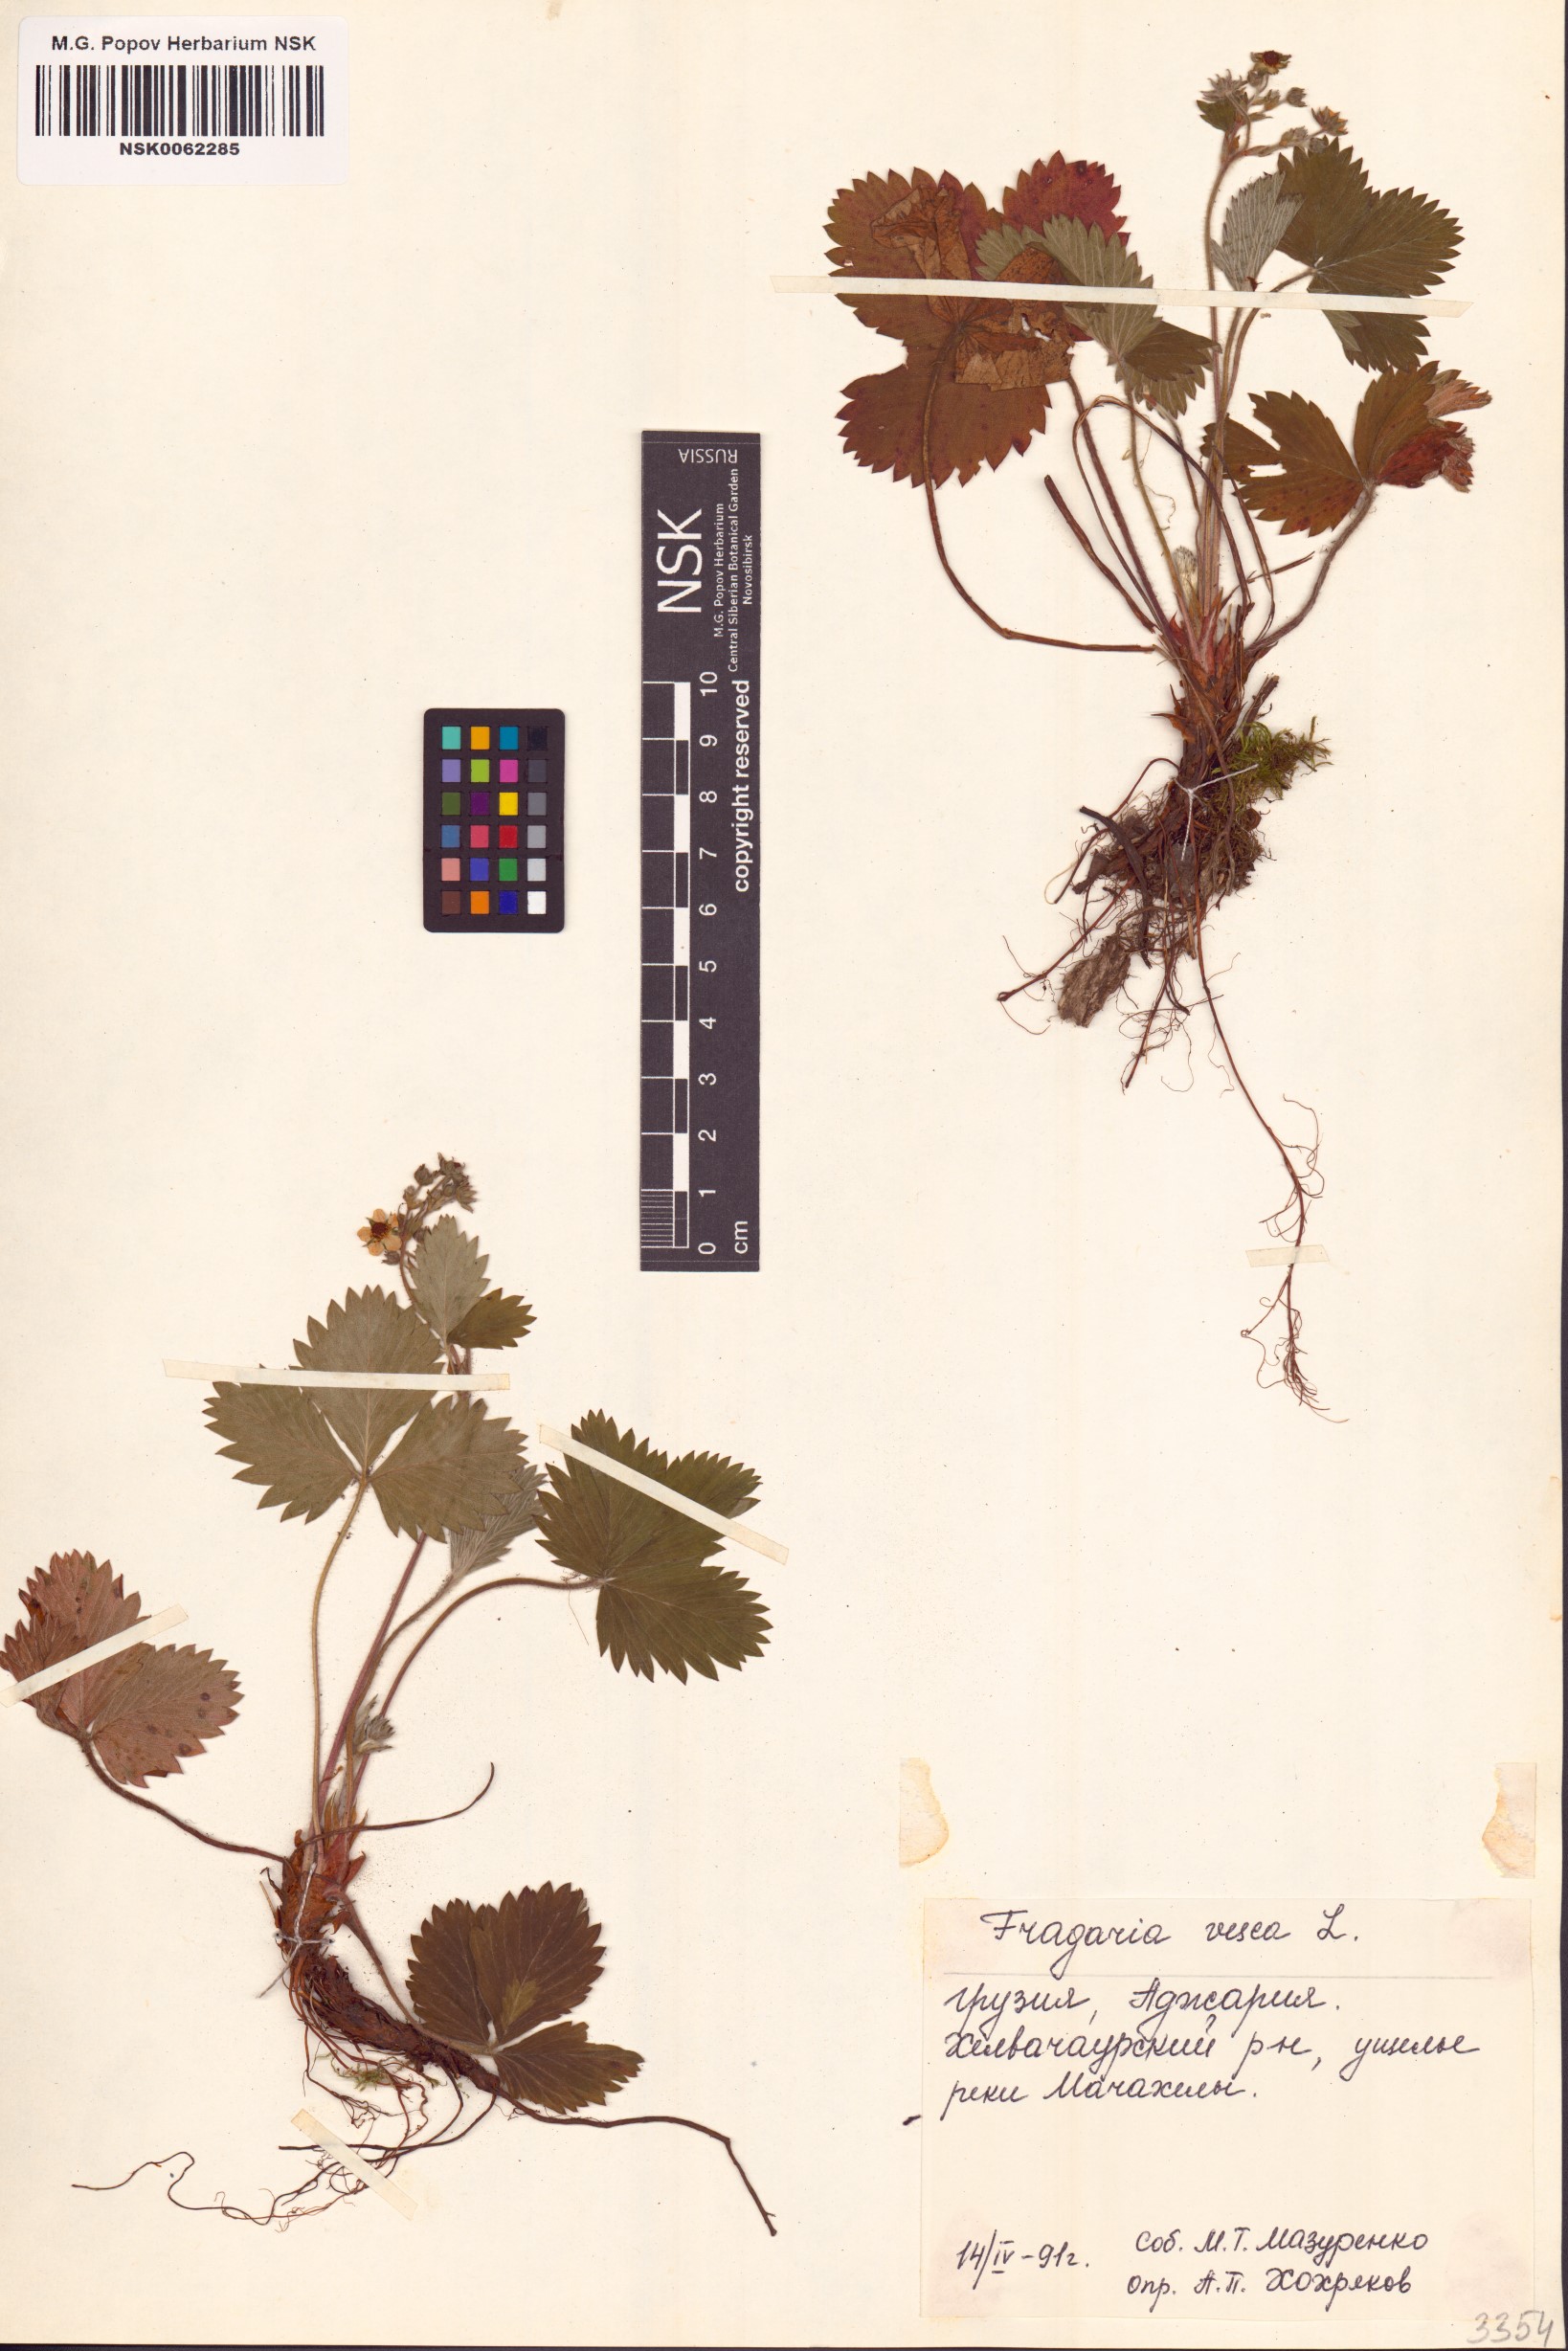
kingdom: Plantae
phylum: Tracheophyta
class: Magnoliopsida
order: Rosales
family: Rosaceae
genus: Fragaria
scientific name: Fragaria vesca
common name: Wild strawberry
